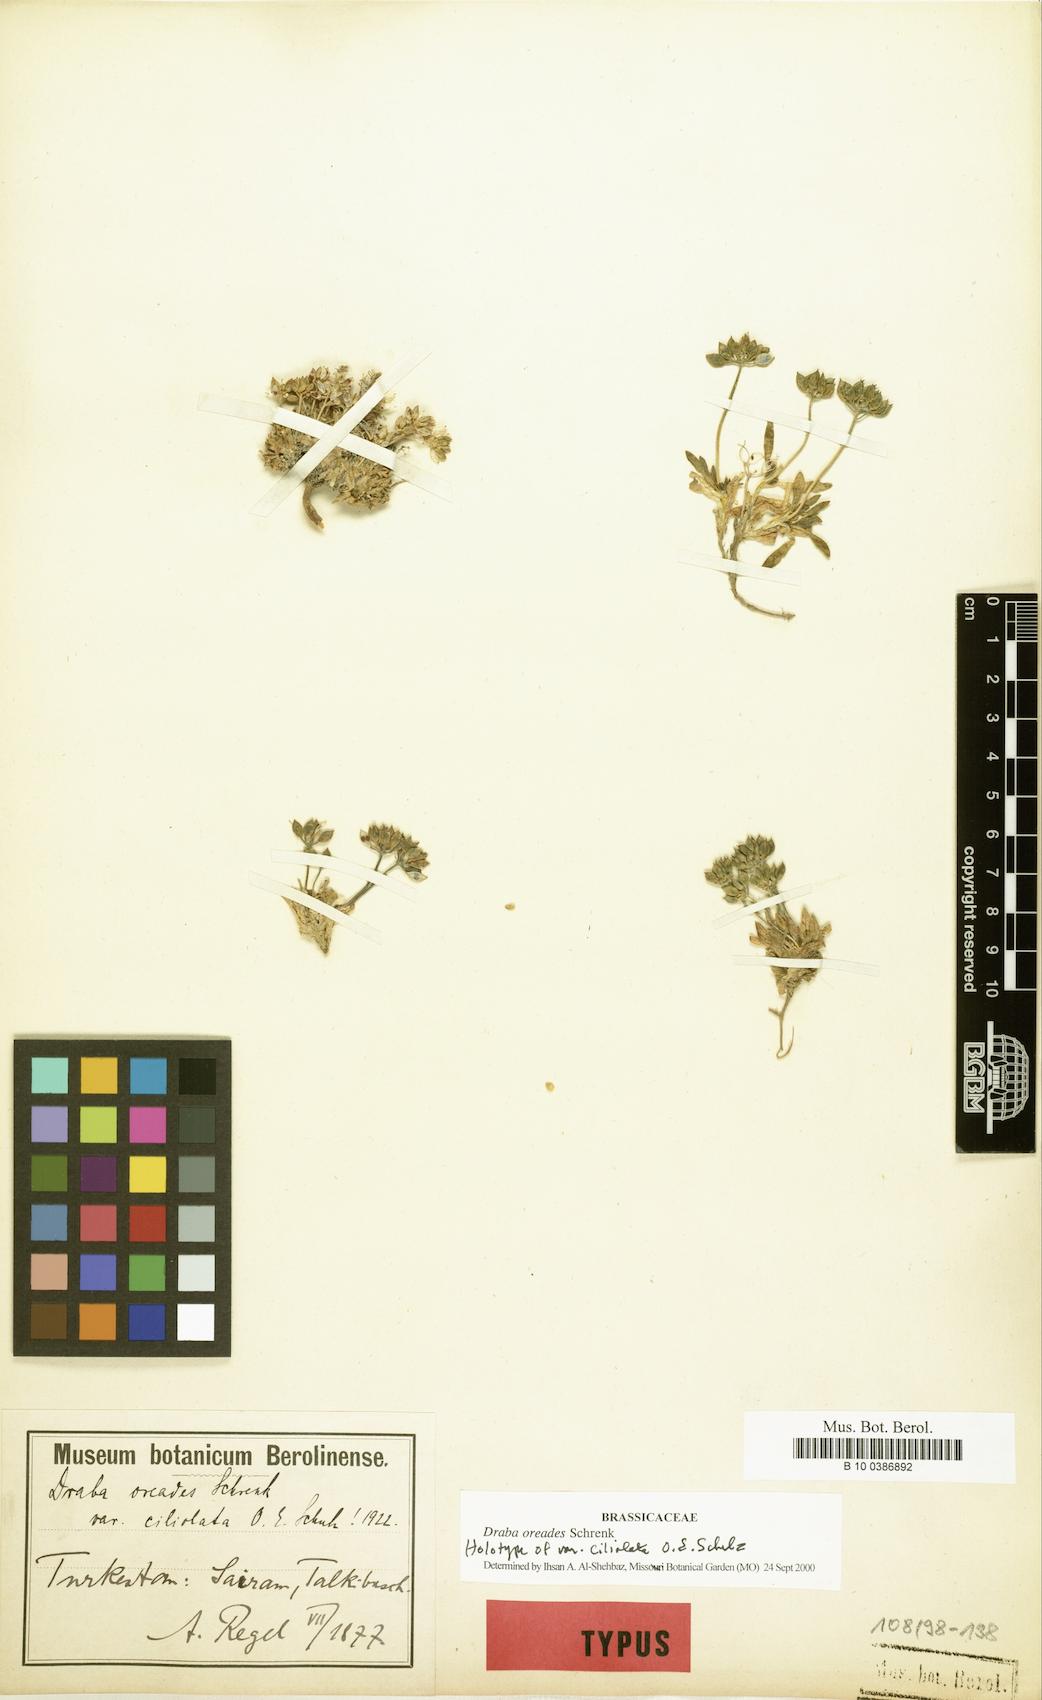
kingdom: Plantae
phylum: Tracheophyta
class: Magnoliopsida
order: Brassicales
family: Brassicaceae
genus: Draba
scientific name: Draba oreades
